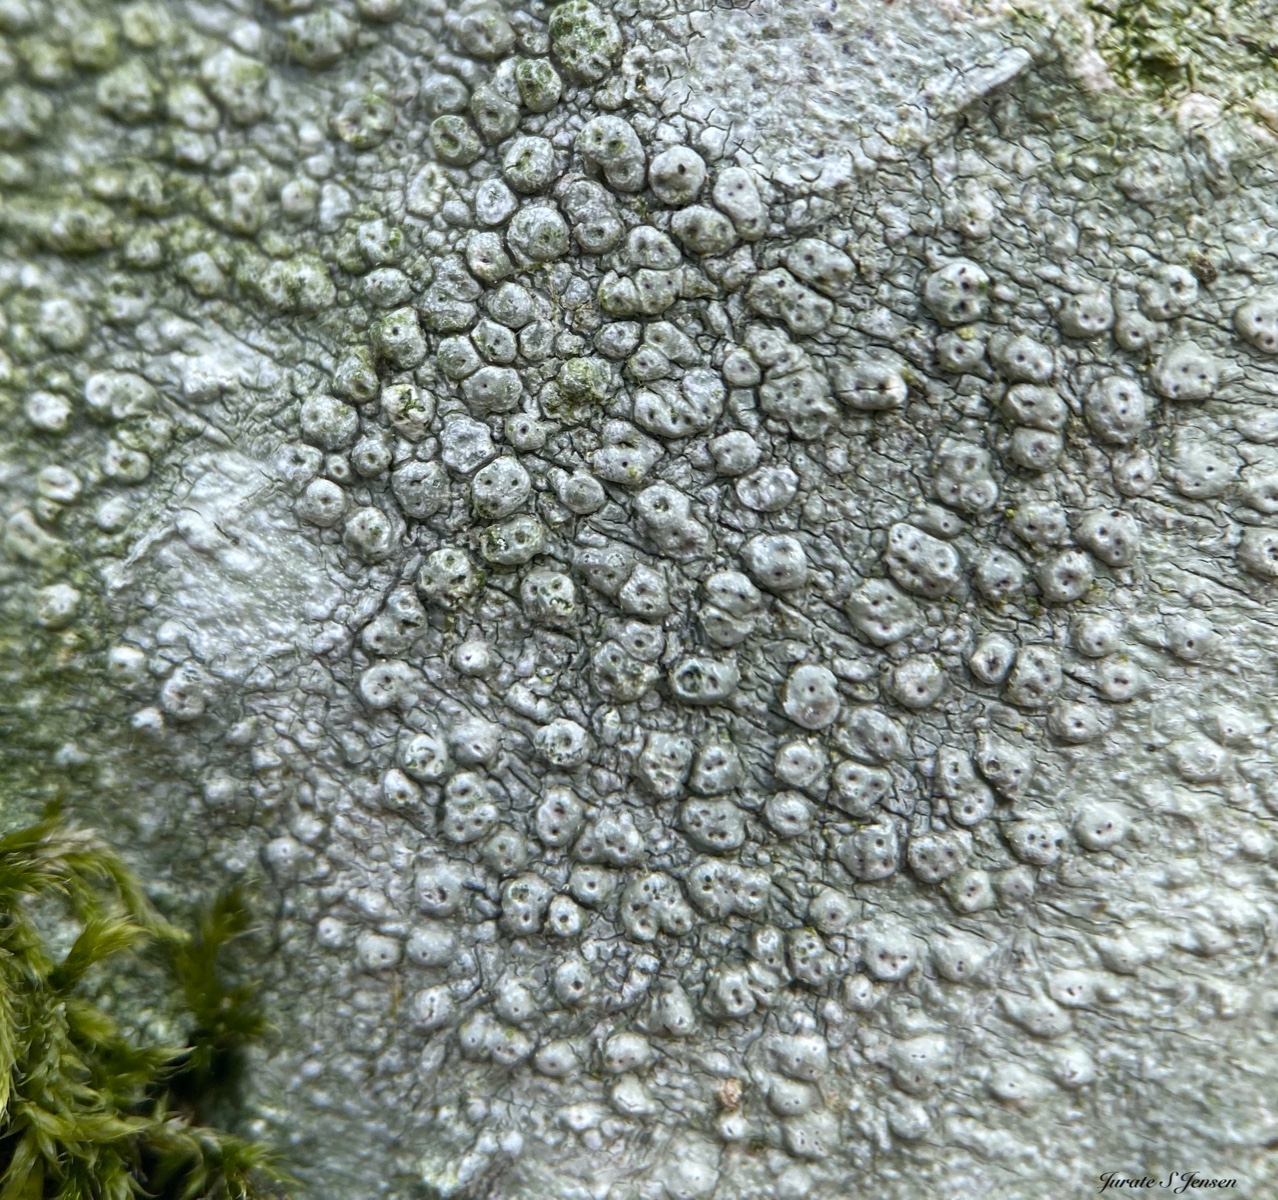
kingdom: Fungi
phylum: Ascomycota
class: Lecanoromycetes
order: Pertusariales
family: Pertusariaceae
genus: Pertusaria
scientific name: Pertusaria pertusa
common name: almindelig prikvortelav
